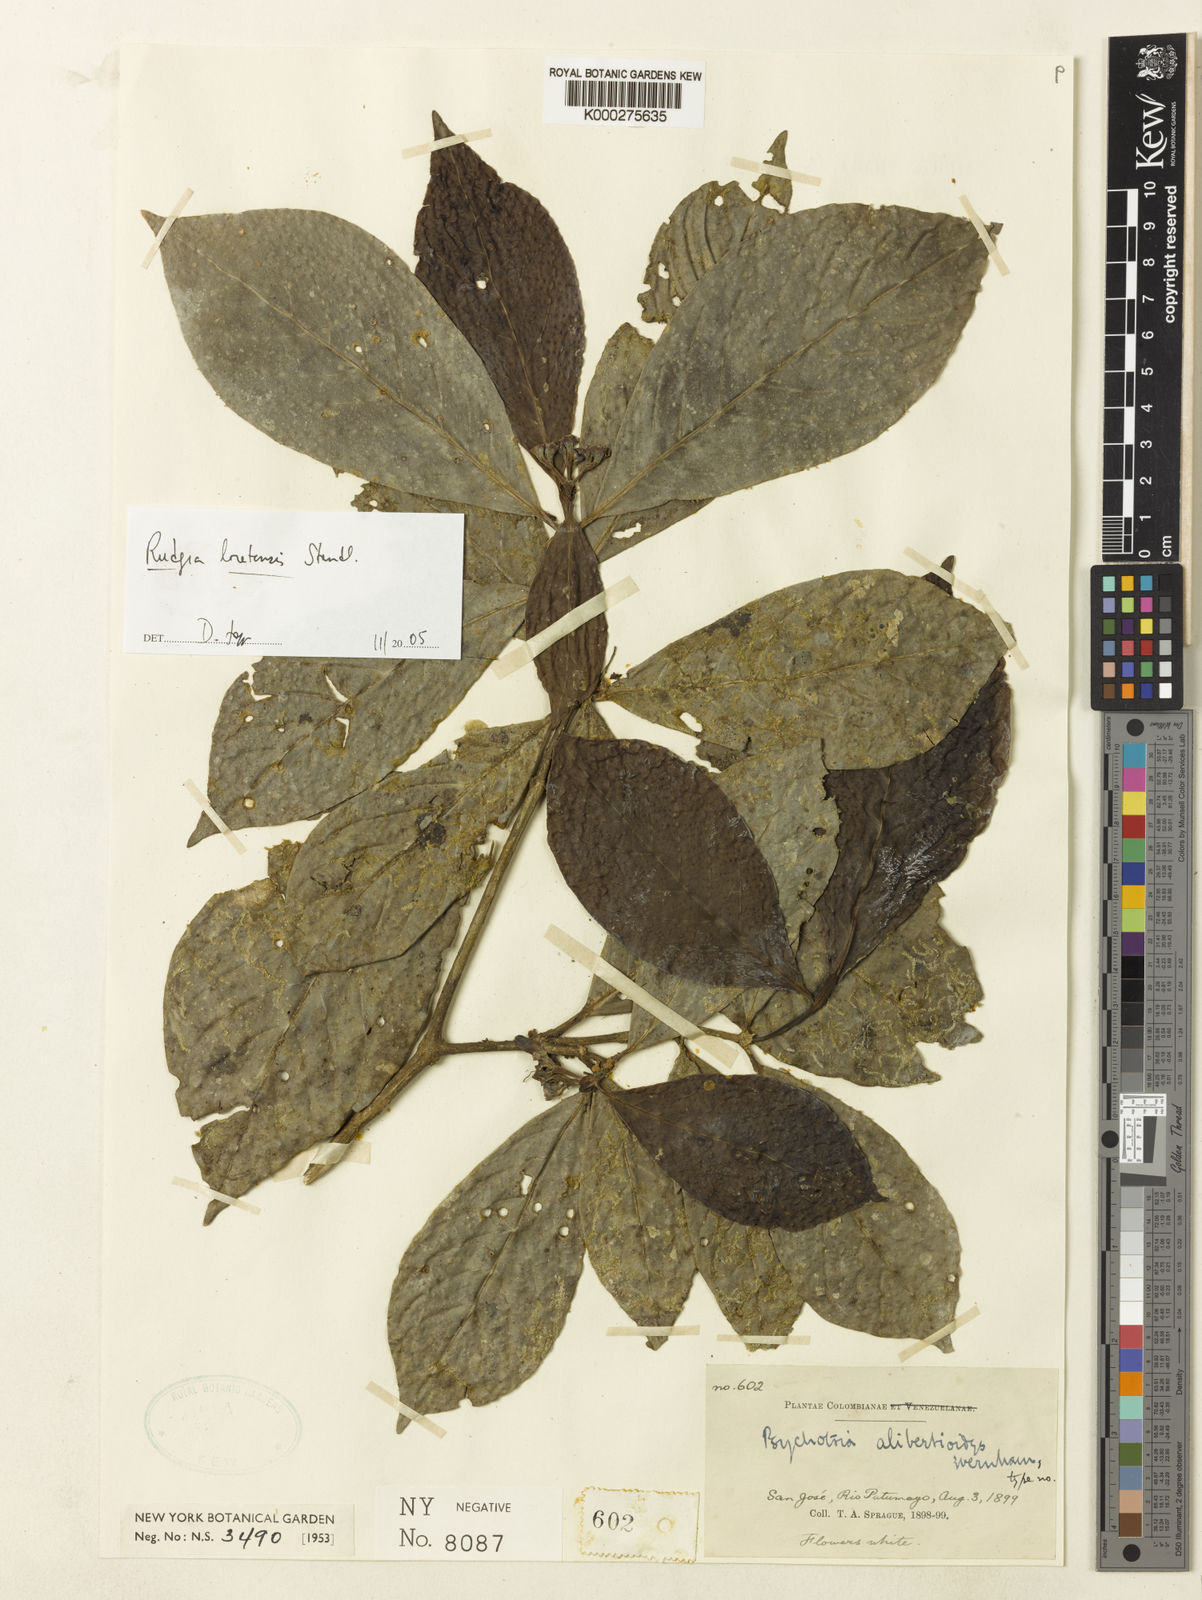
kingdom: Plantae
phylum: Tracheophyta
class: Magnoliopsida
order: Gentianales
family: Rubiaceae
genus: Rudgea
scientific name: Rudgea loretensis
